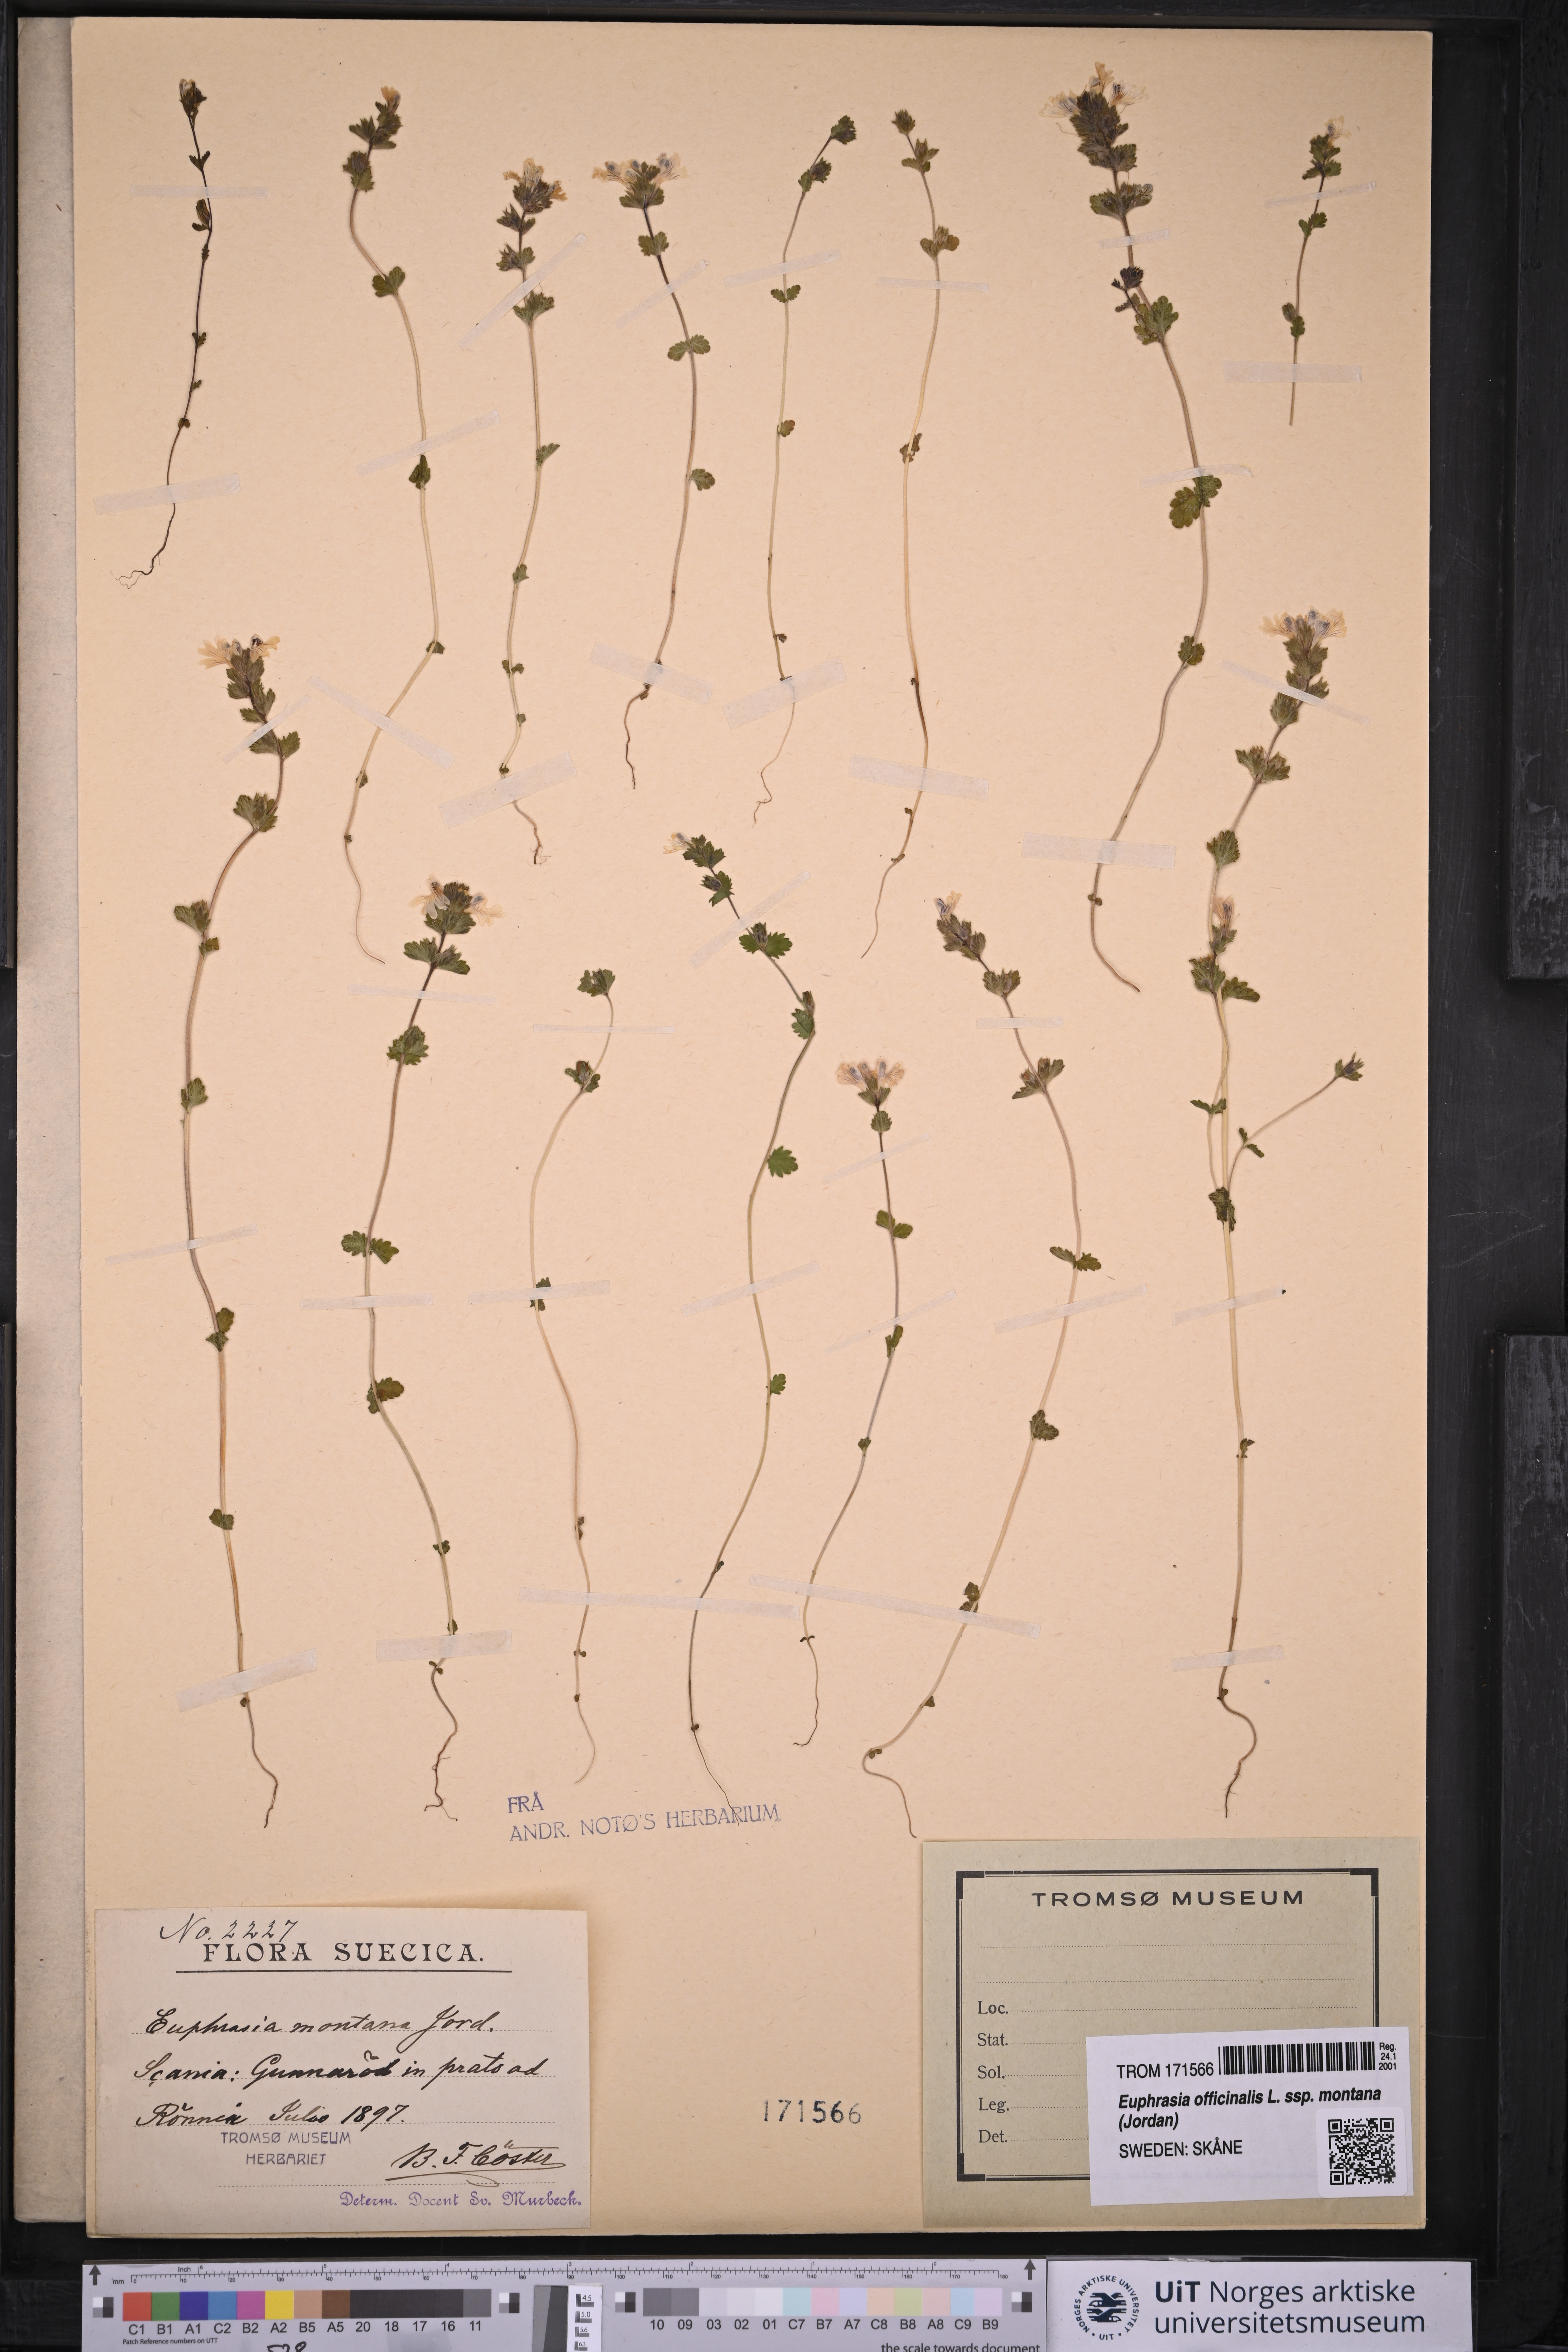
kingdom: Plantae
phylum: Tracheophyta
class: Magnoliopsida
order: Lamiales
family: Orobanchaceae
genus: Euphrasia
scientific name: Euphrasia officinalis
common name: Eyebright
